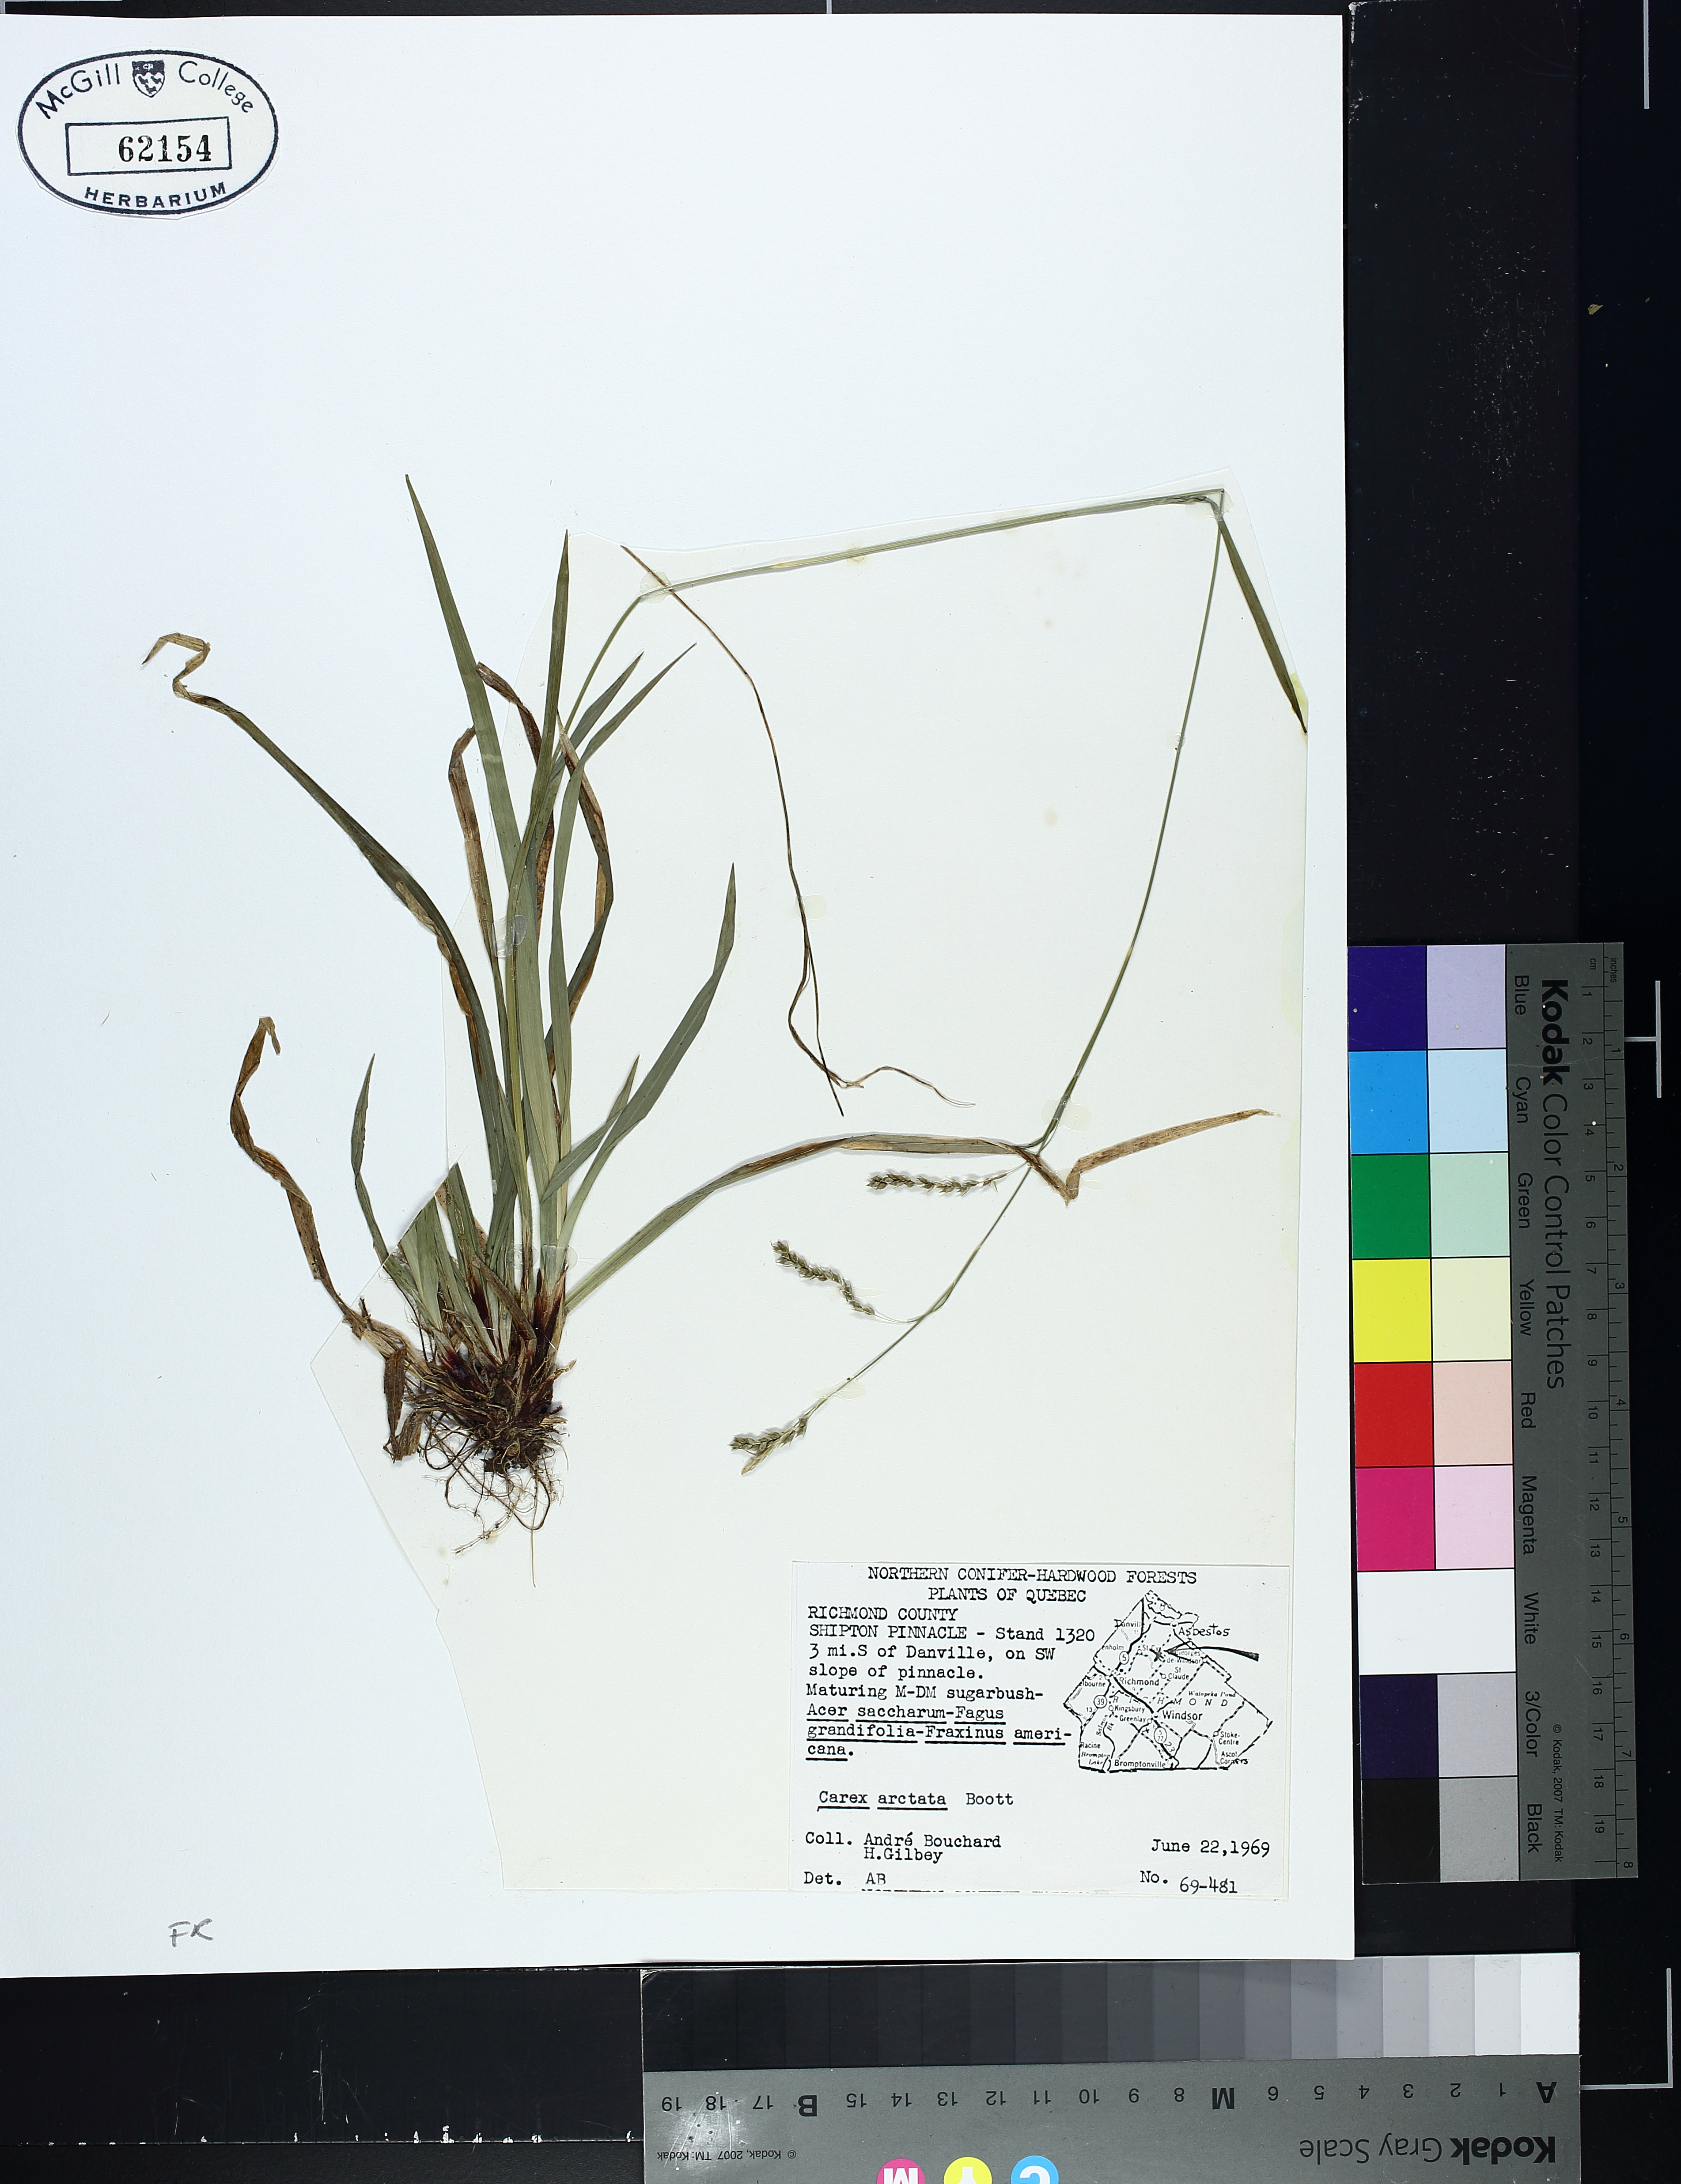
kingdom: Plantae
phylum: Tracheophyta
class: Liliopsida
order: Poales
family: Cyperaceae
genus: Carex
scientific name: Carex arctata
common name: Black sedge
